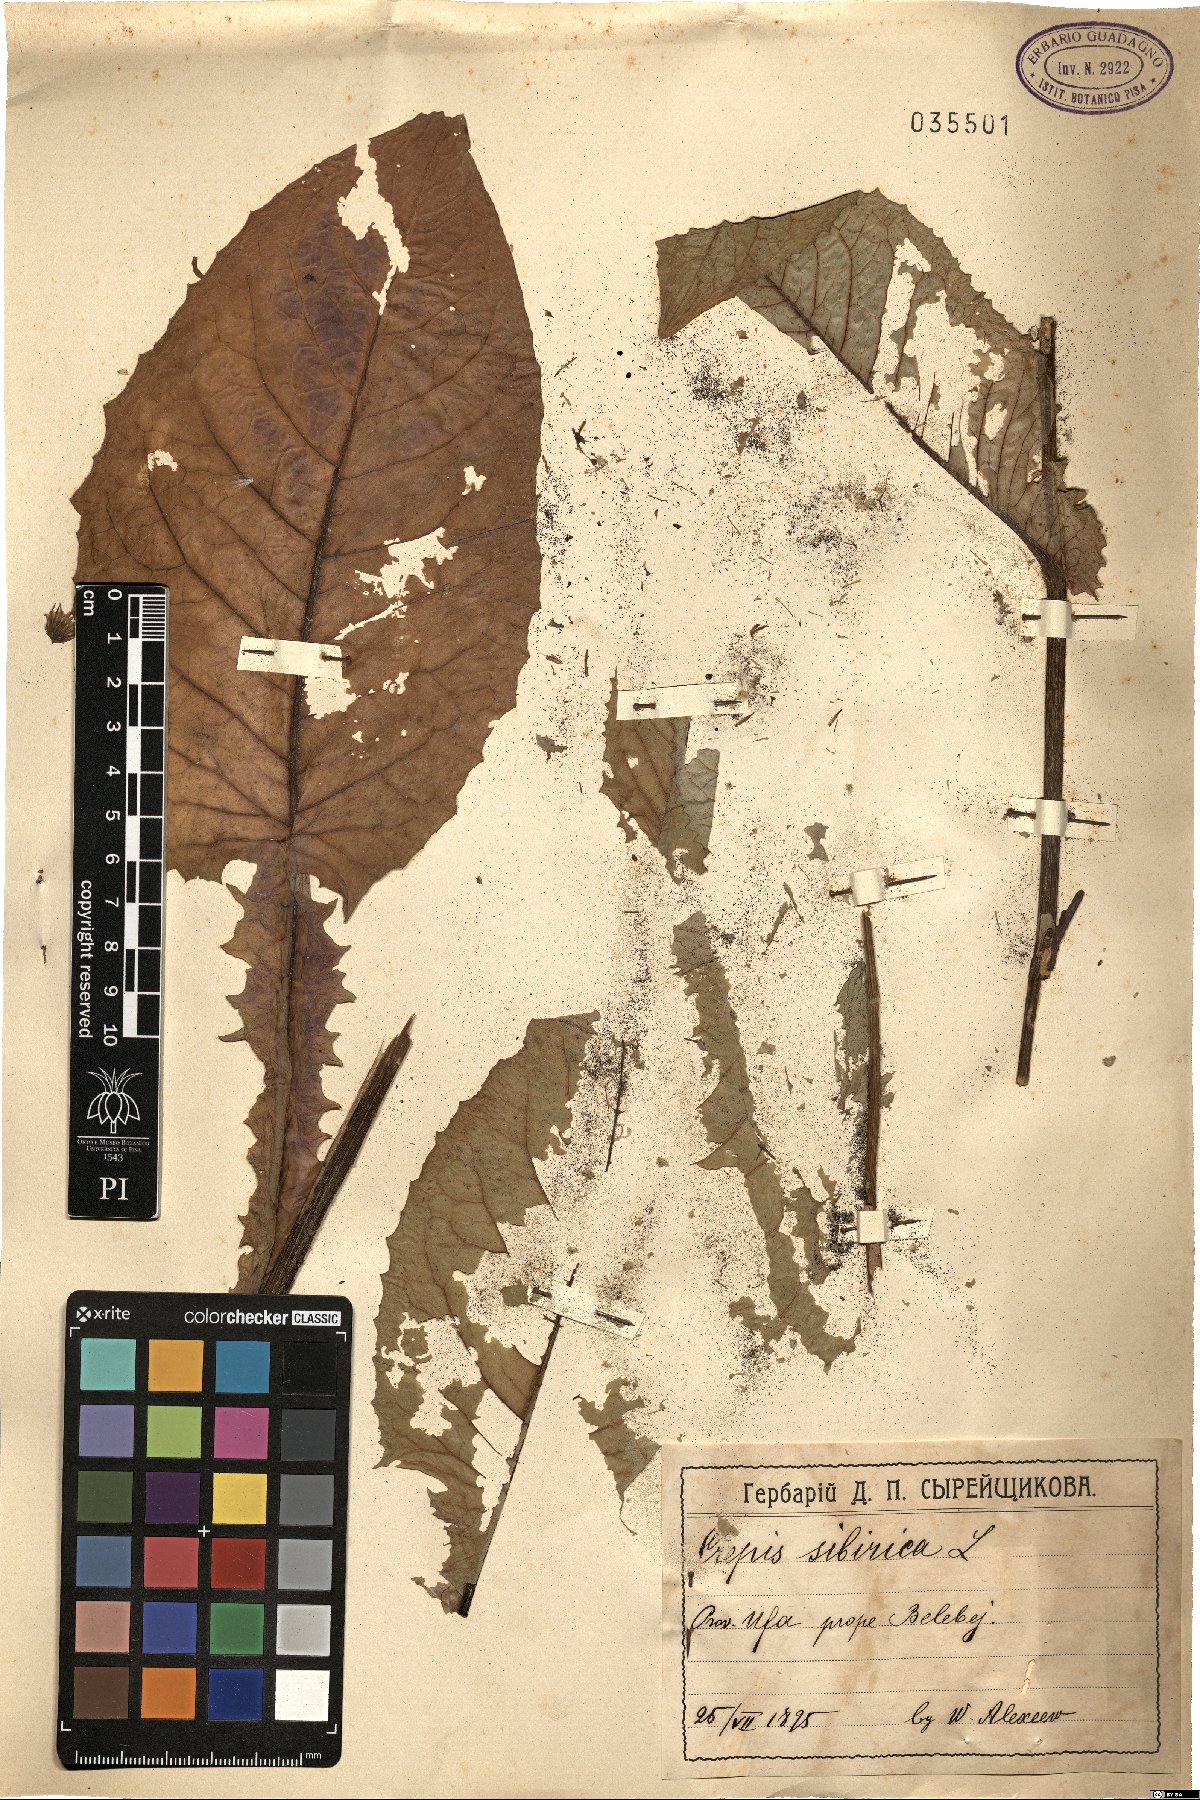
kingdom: Plantae
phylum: Tracheophyta
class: Magnoliopsida
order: Asterales
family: Asteraceae
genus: Crepis
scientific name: Crepis sibirica
